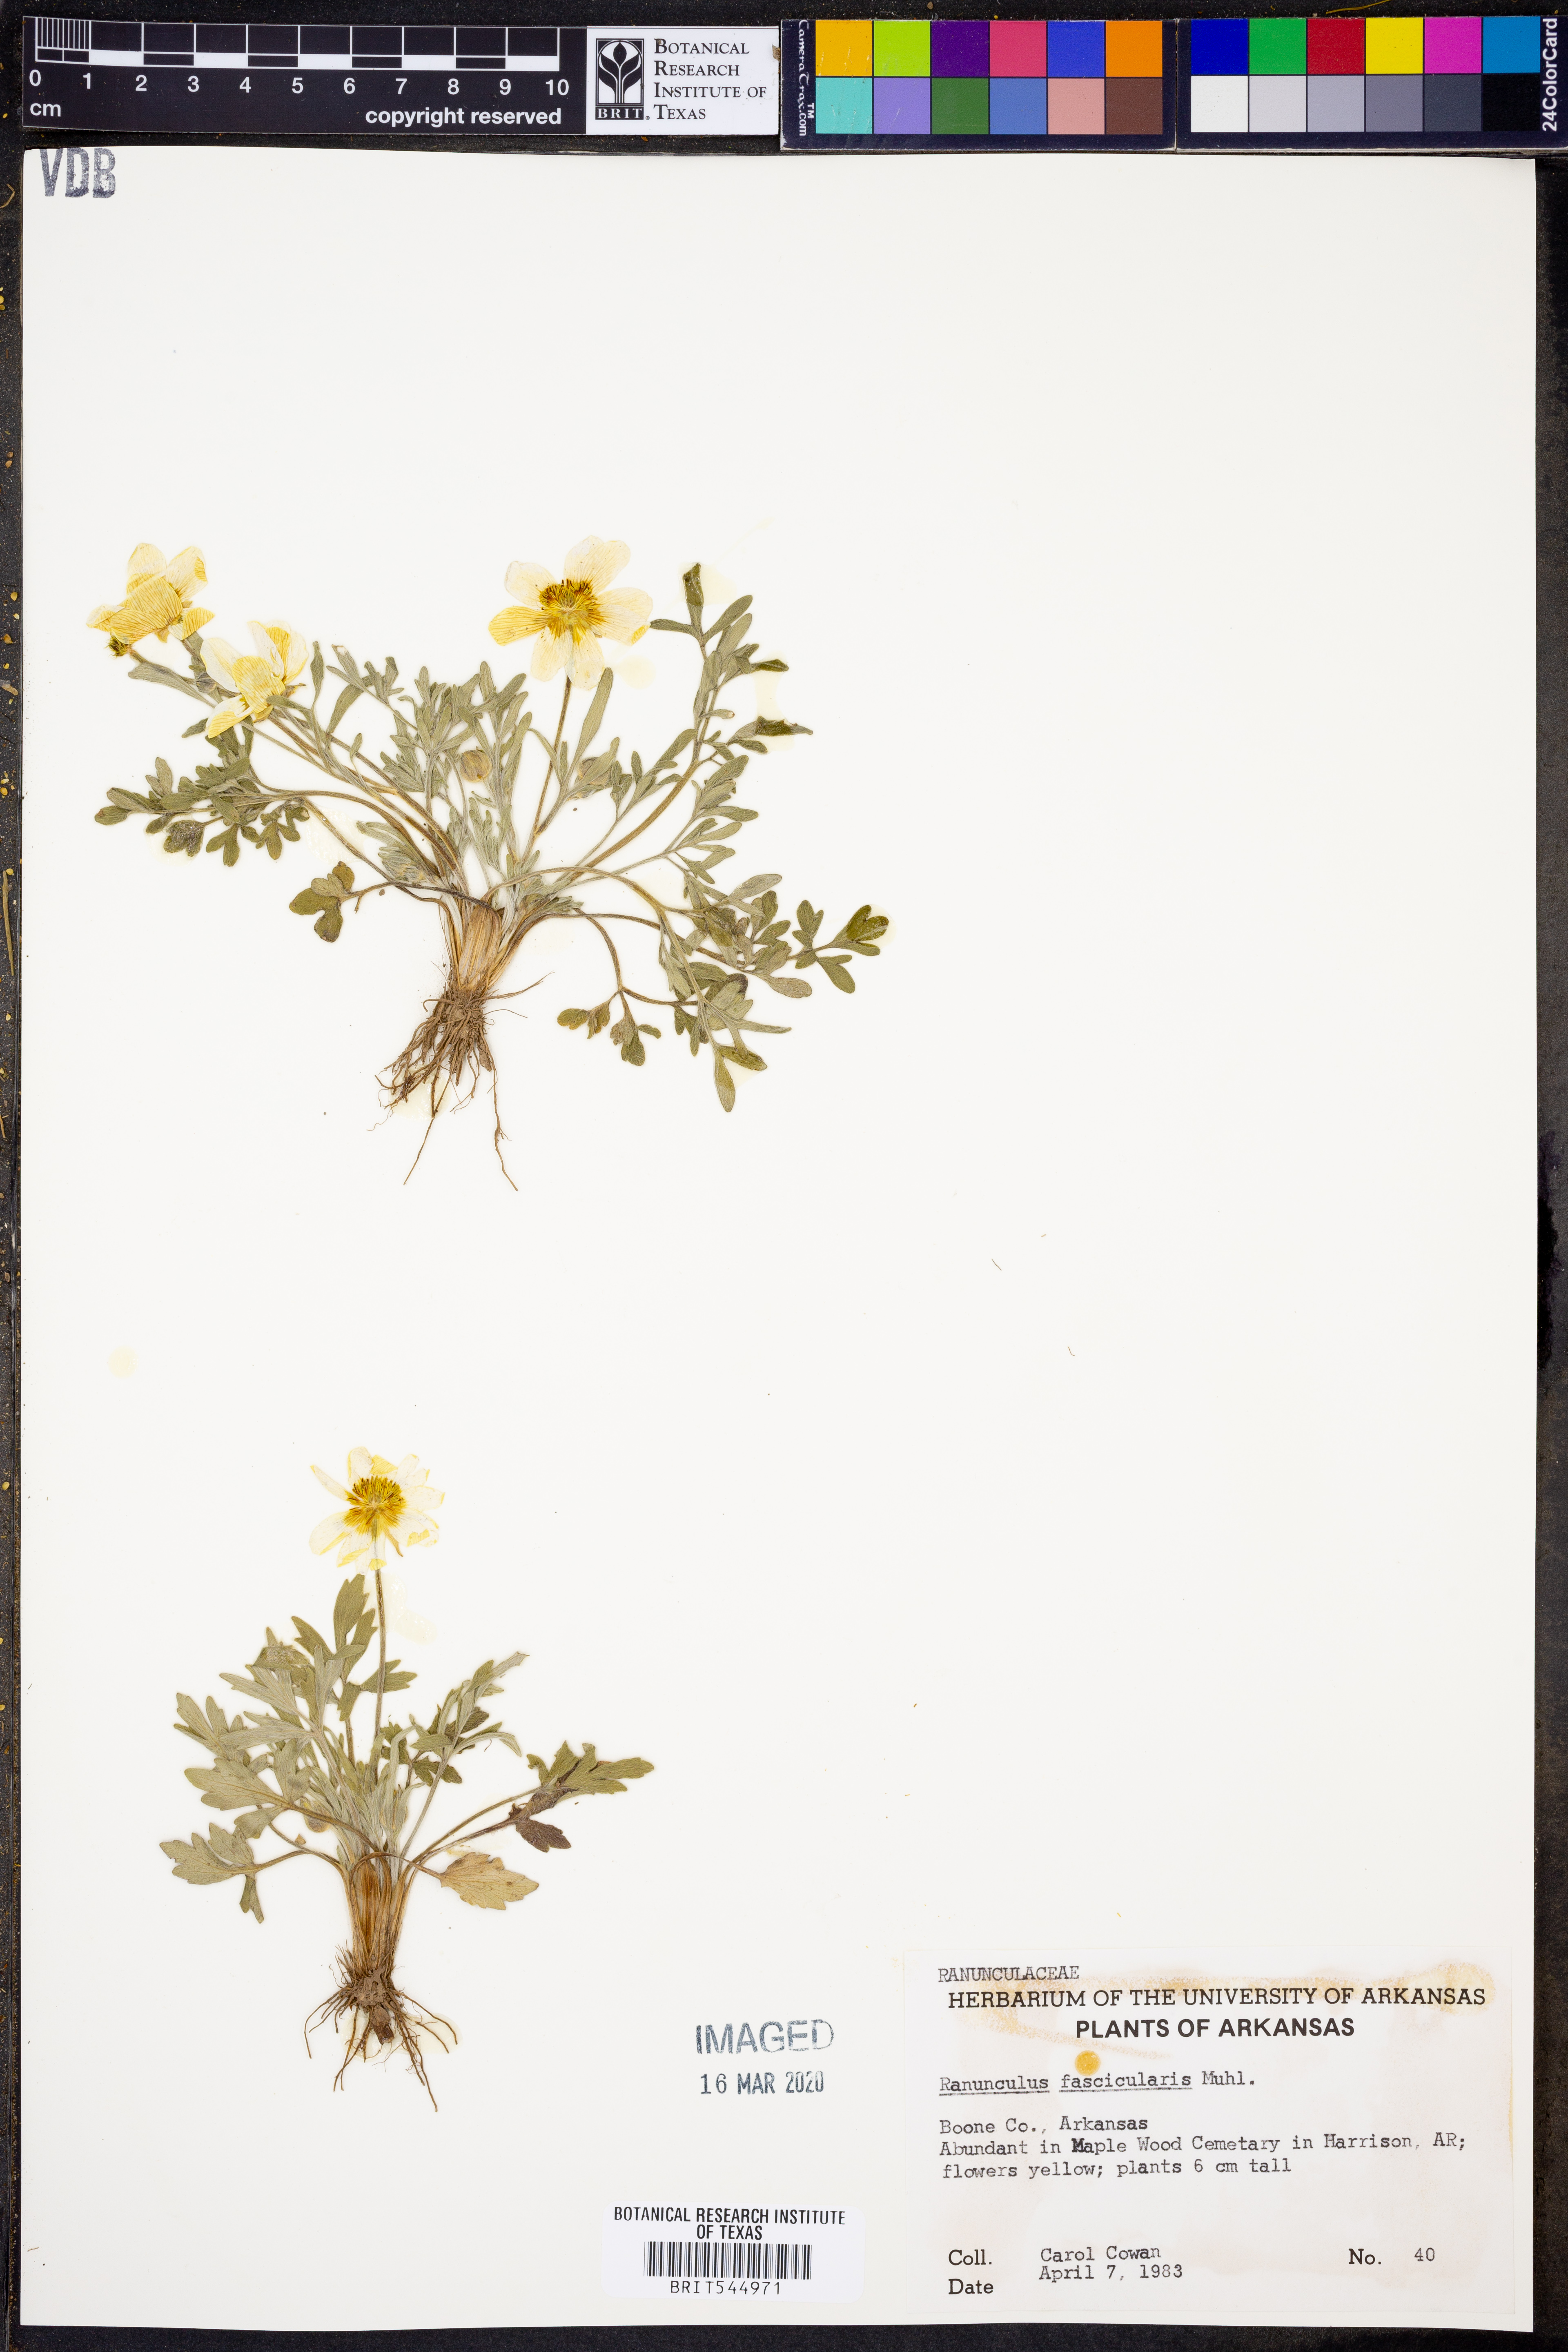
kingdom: Plantae
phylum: Tracheophyta
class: Magnoliopsida
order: Ranunculales
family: Ranunculaceae
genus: Ranunculus
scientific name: Ranunculus fascicularis
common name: Early buttercup
